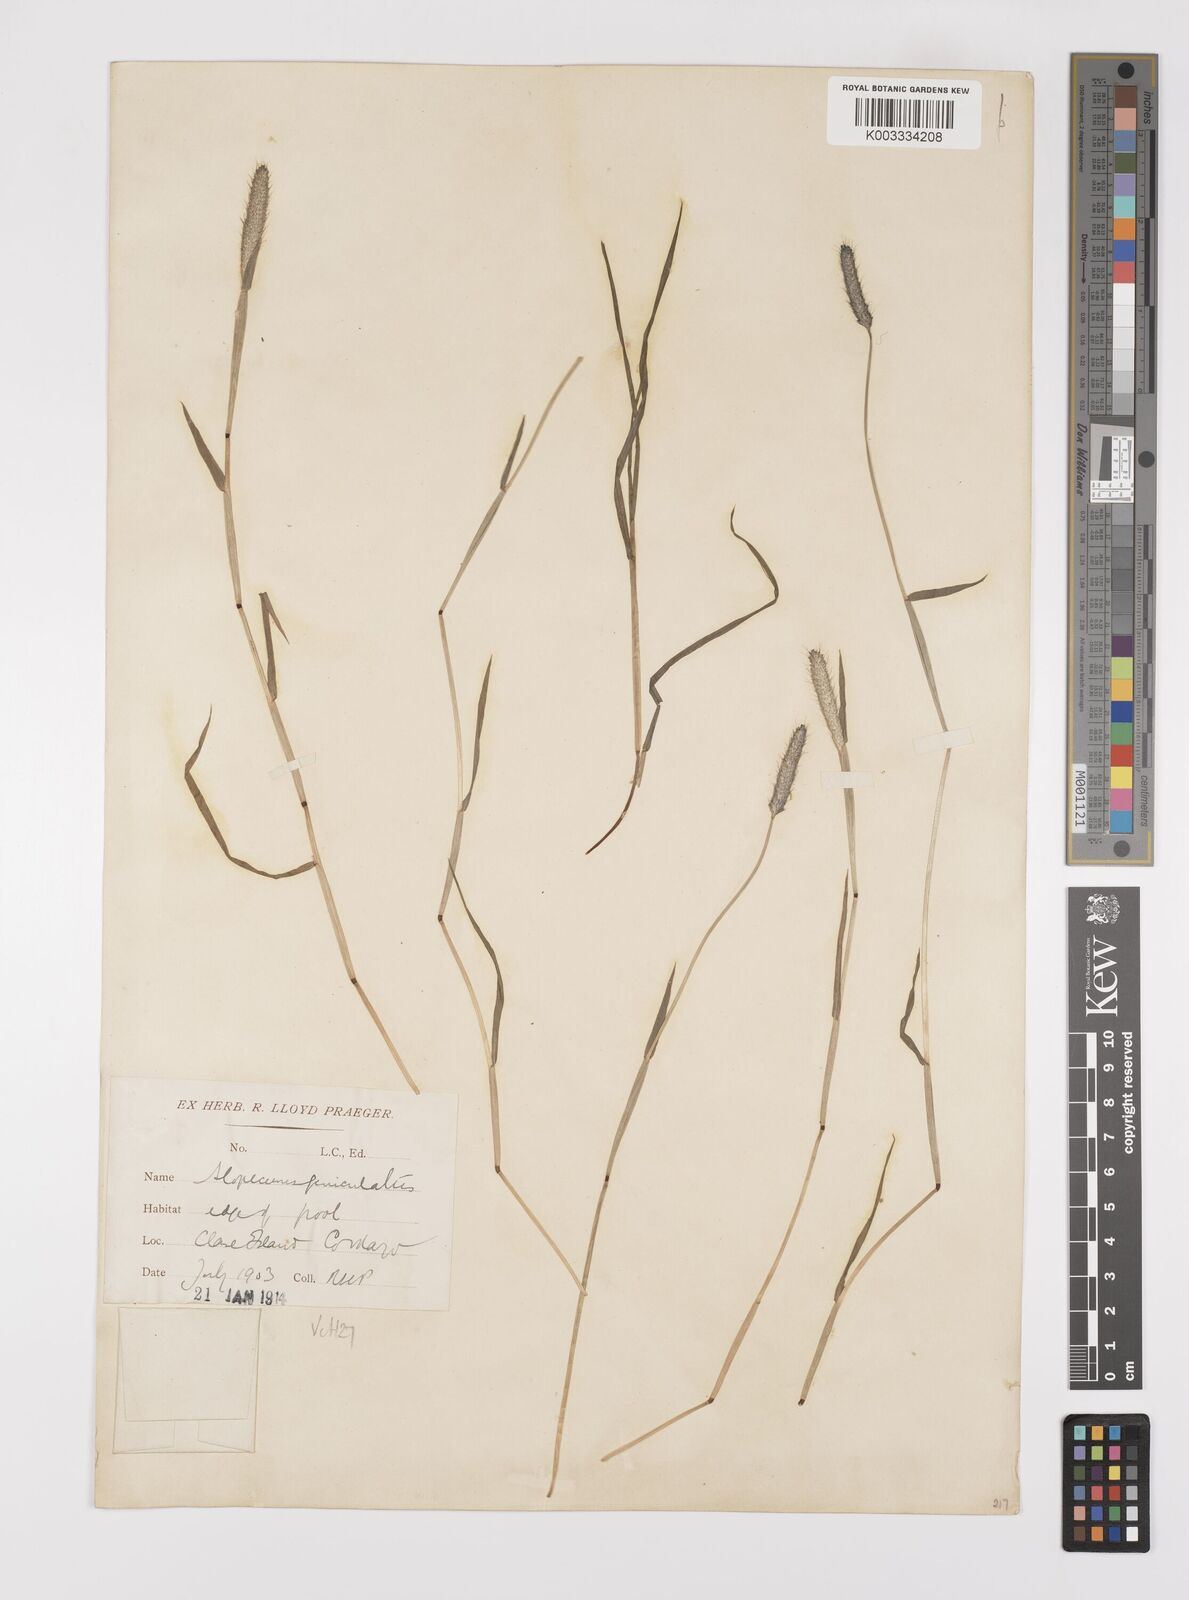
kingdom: Plantae
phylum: Tracheophyta
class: Liliopsida
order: Poales
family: Poaceae
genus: Alopecurus
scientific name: Alopecurus geniculatus
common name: Water foxtail
